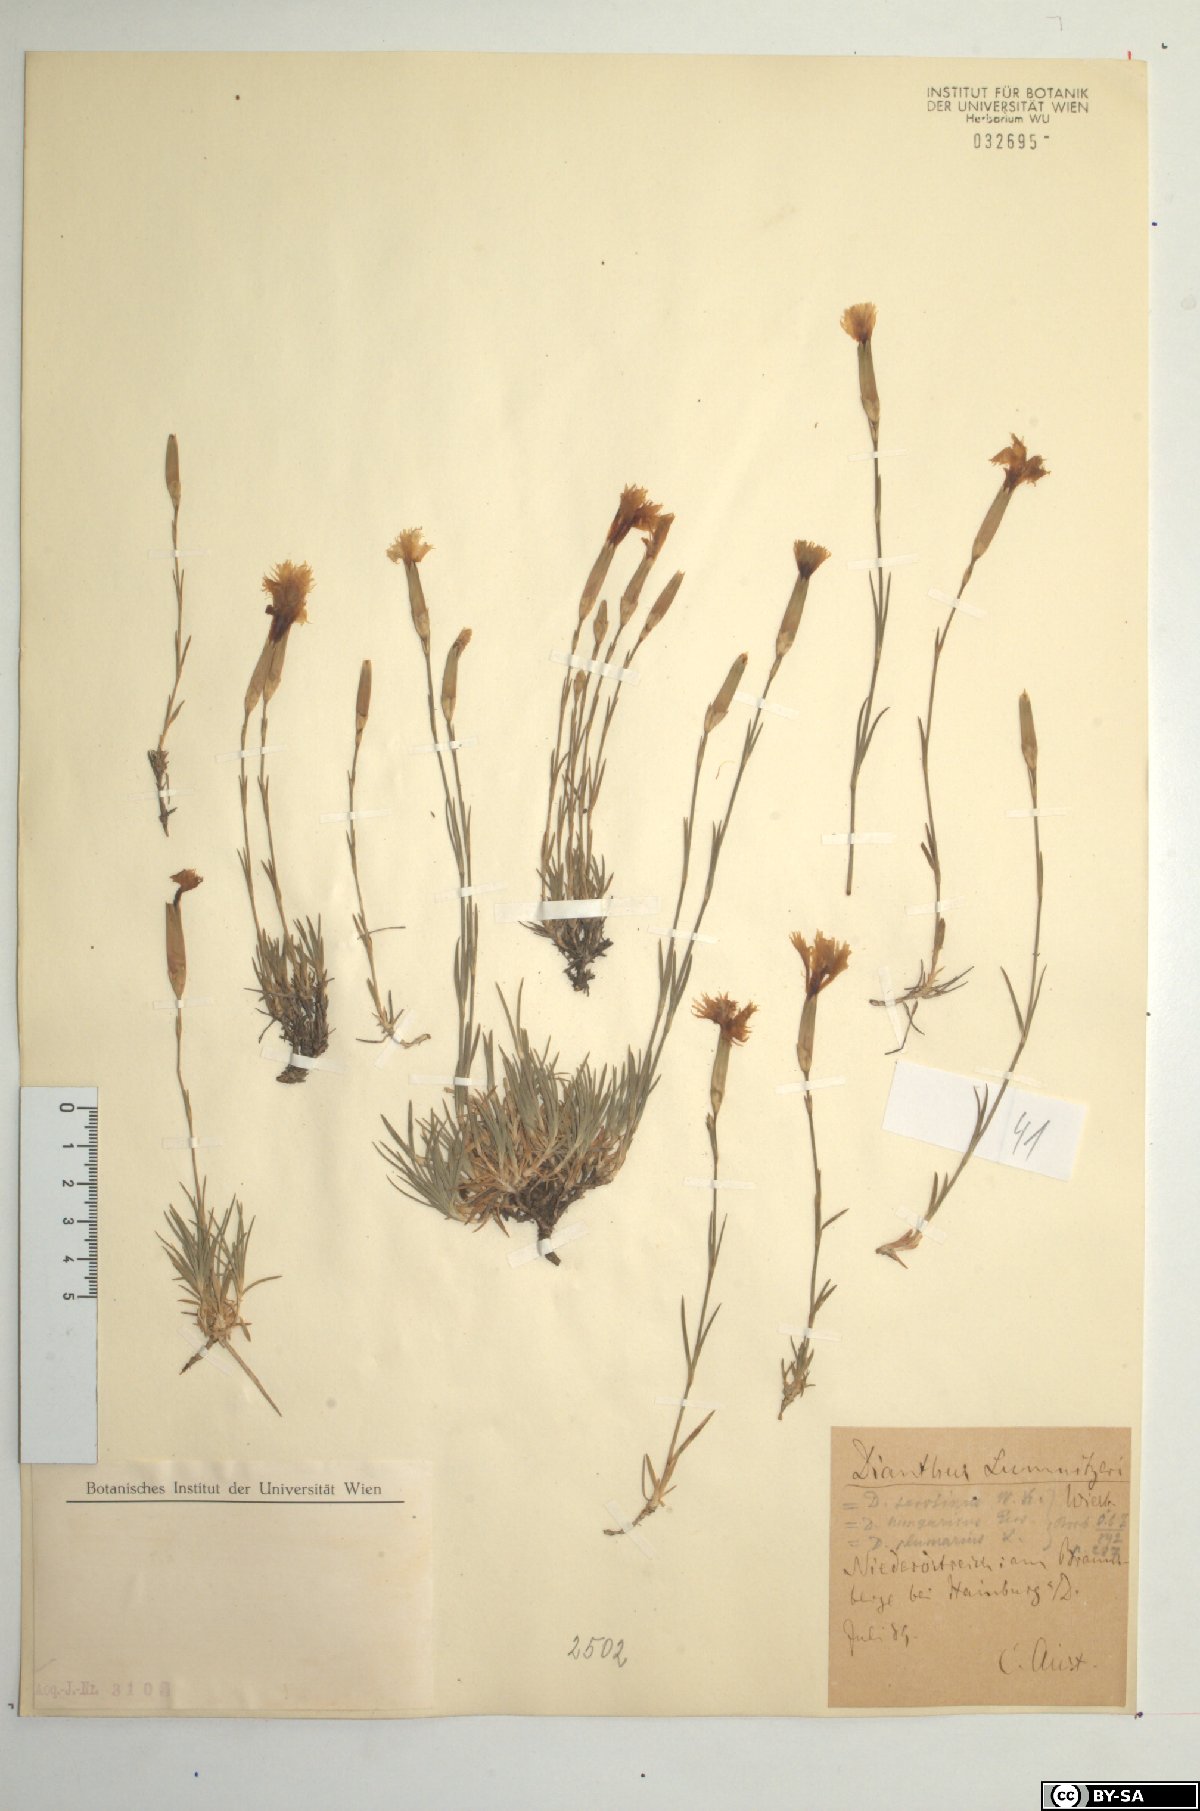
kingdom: Plantae
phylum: Tracheophyta
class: Magnoliopsida
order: Caryophyllales
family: Caryophyllaceae
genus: Dianthus
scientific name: Dianthus praecox
